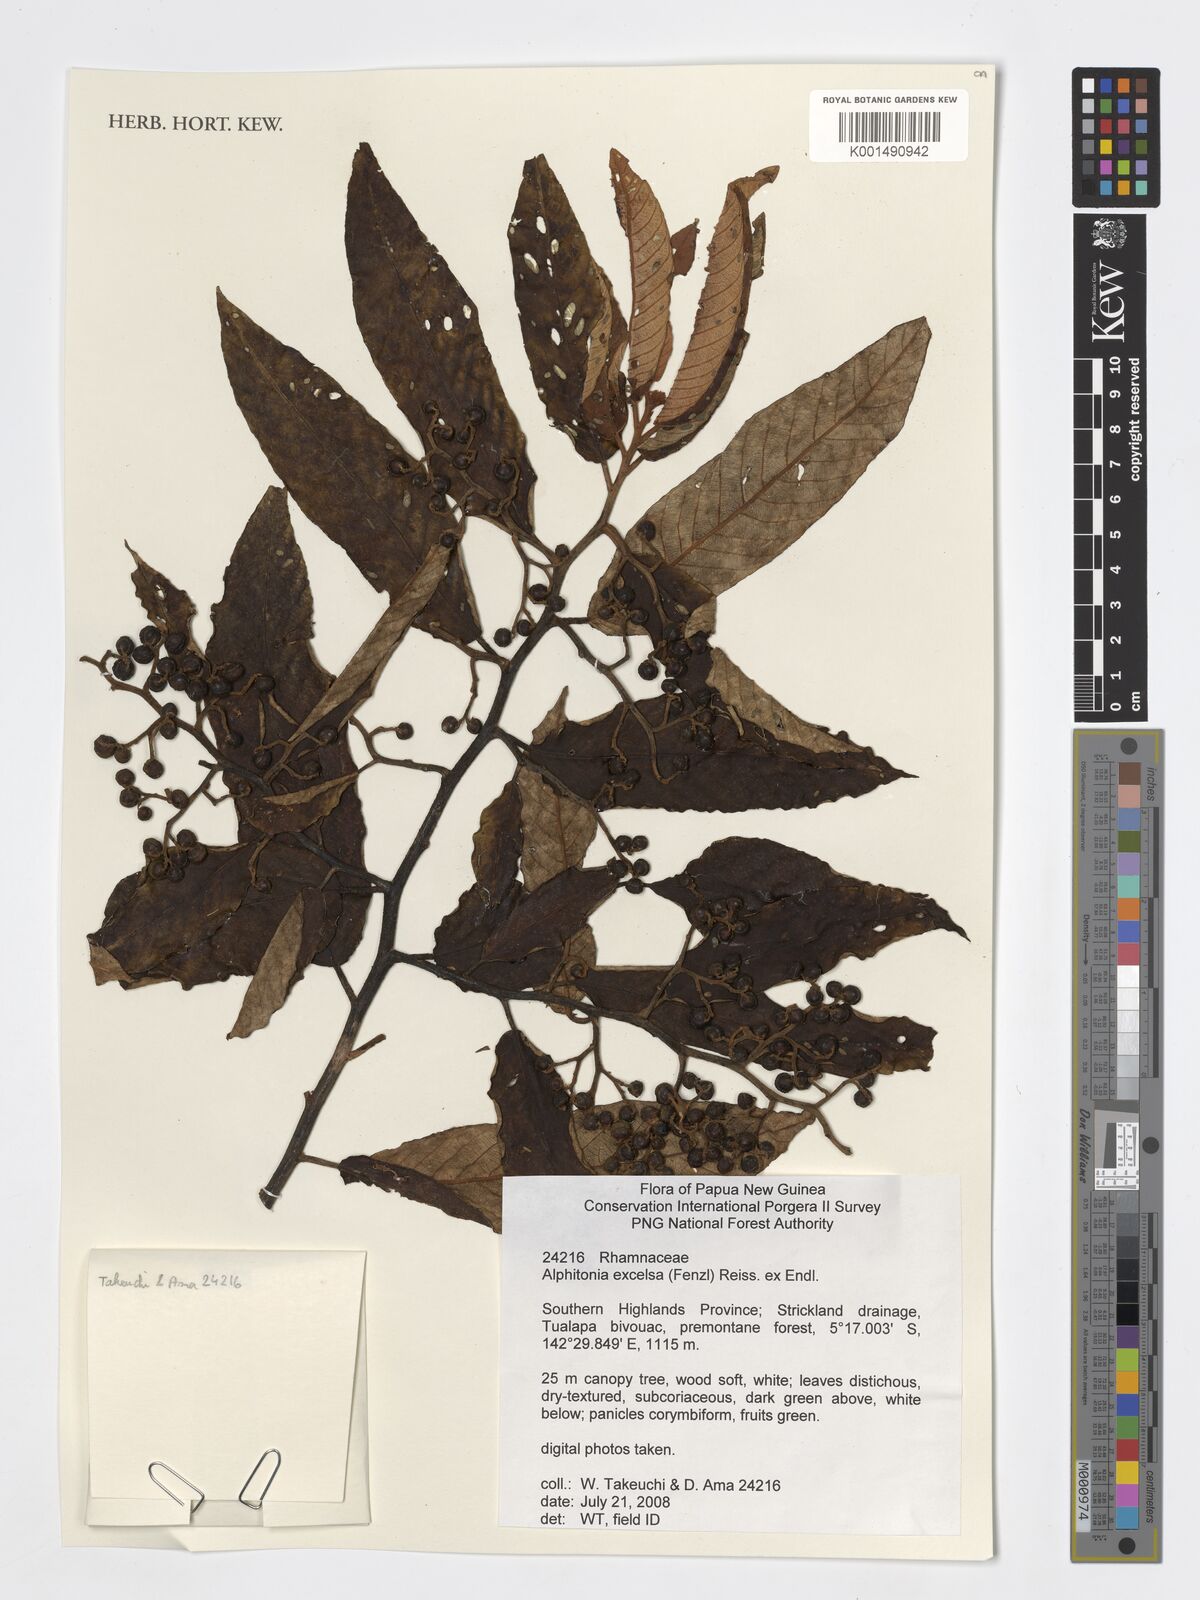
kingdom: Plantae
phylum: Tracheophyta
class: Magnoliopsida
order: Rosales
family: Rhamnaceae
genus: Alphitonia
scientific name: Alphitonia excelsa
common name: Red ash
